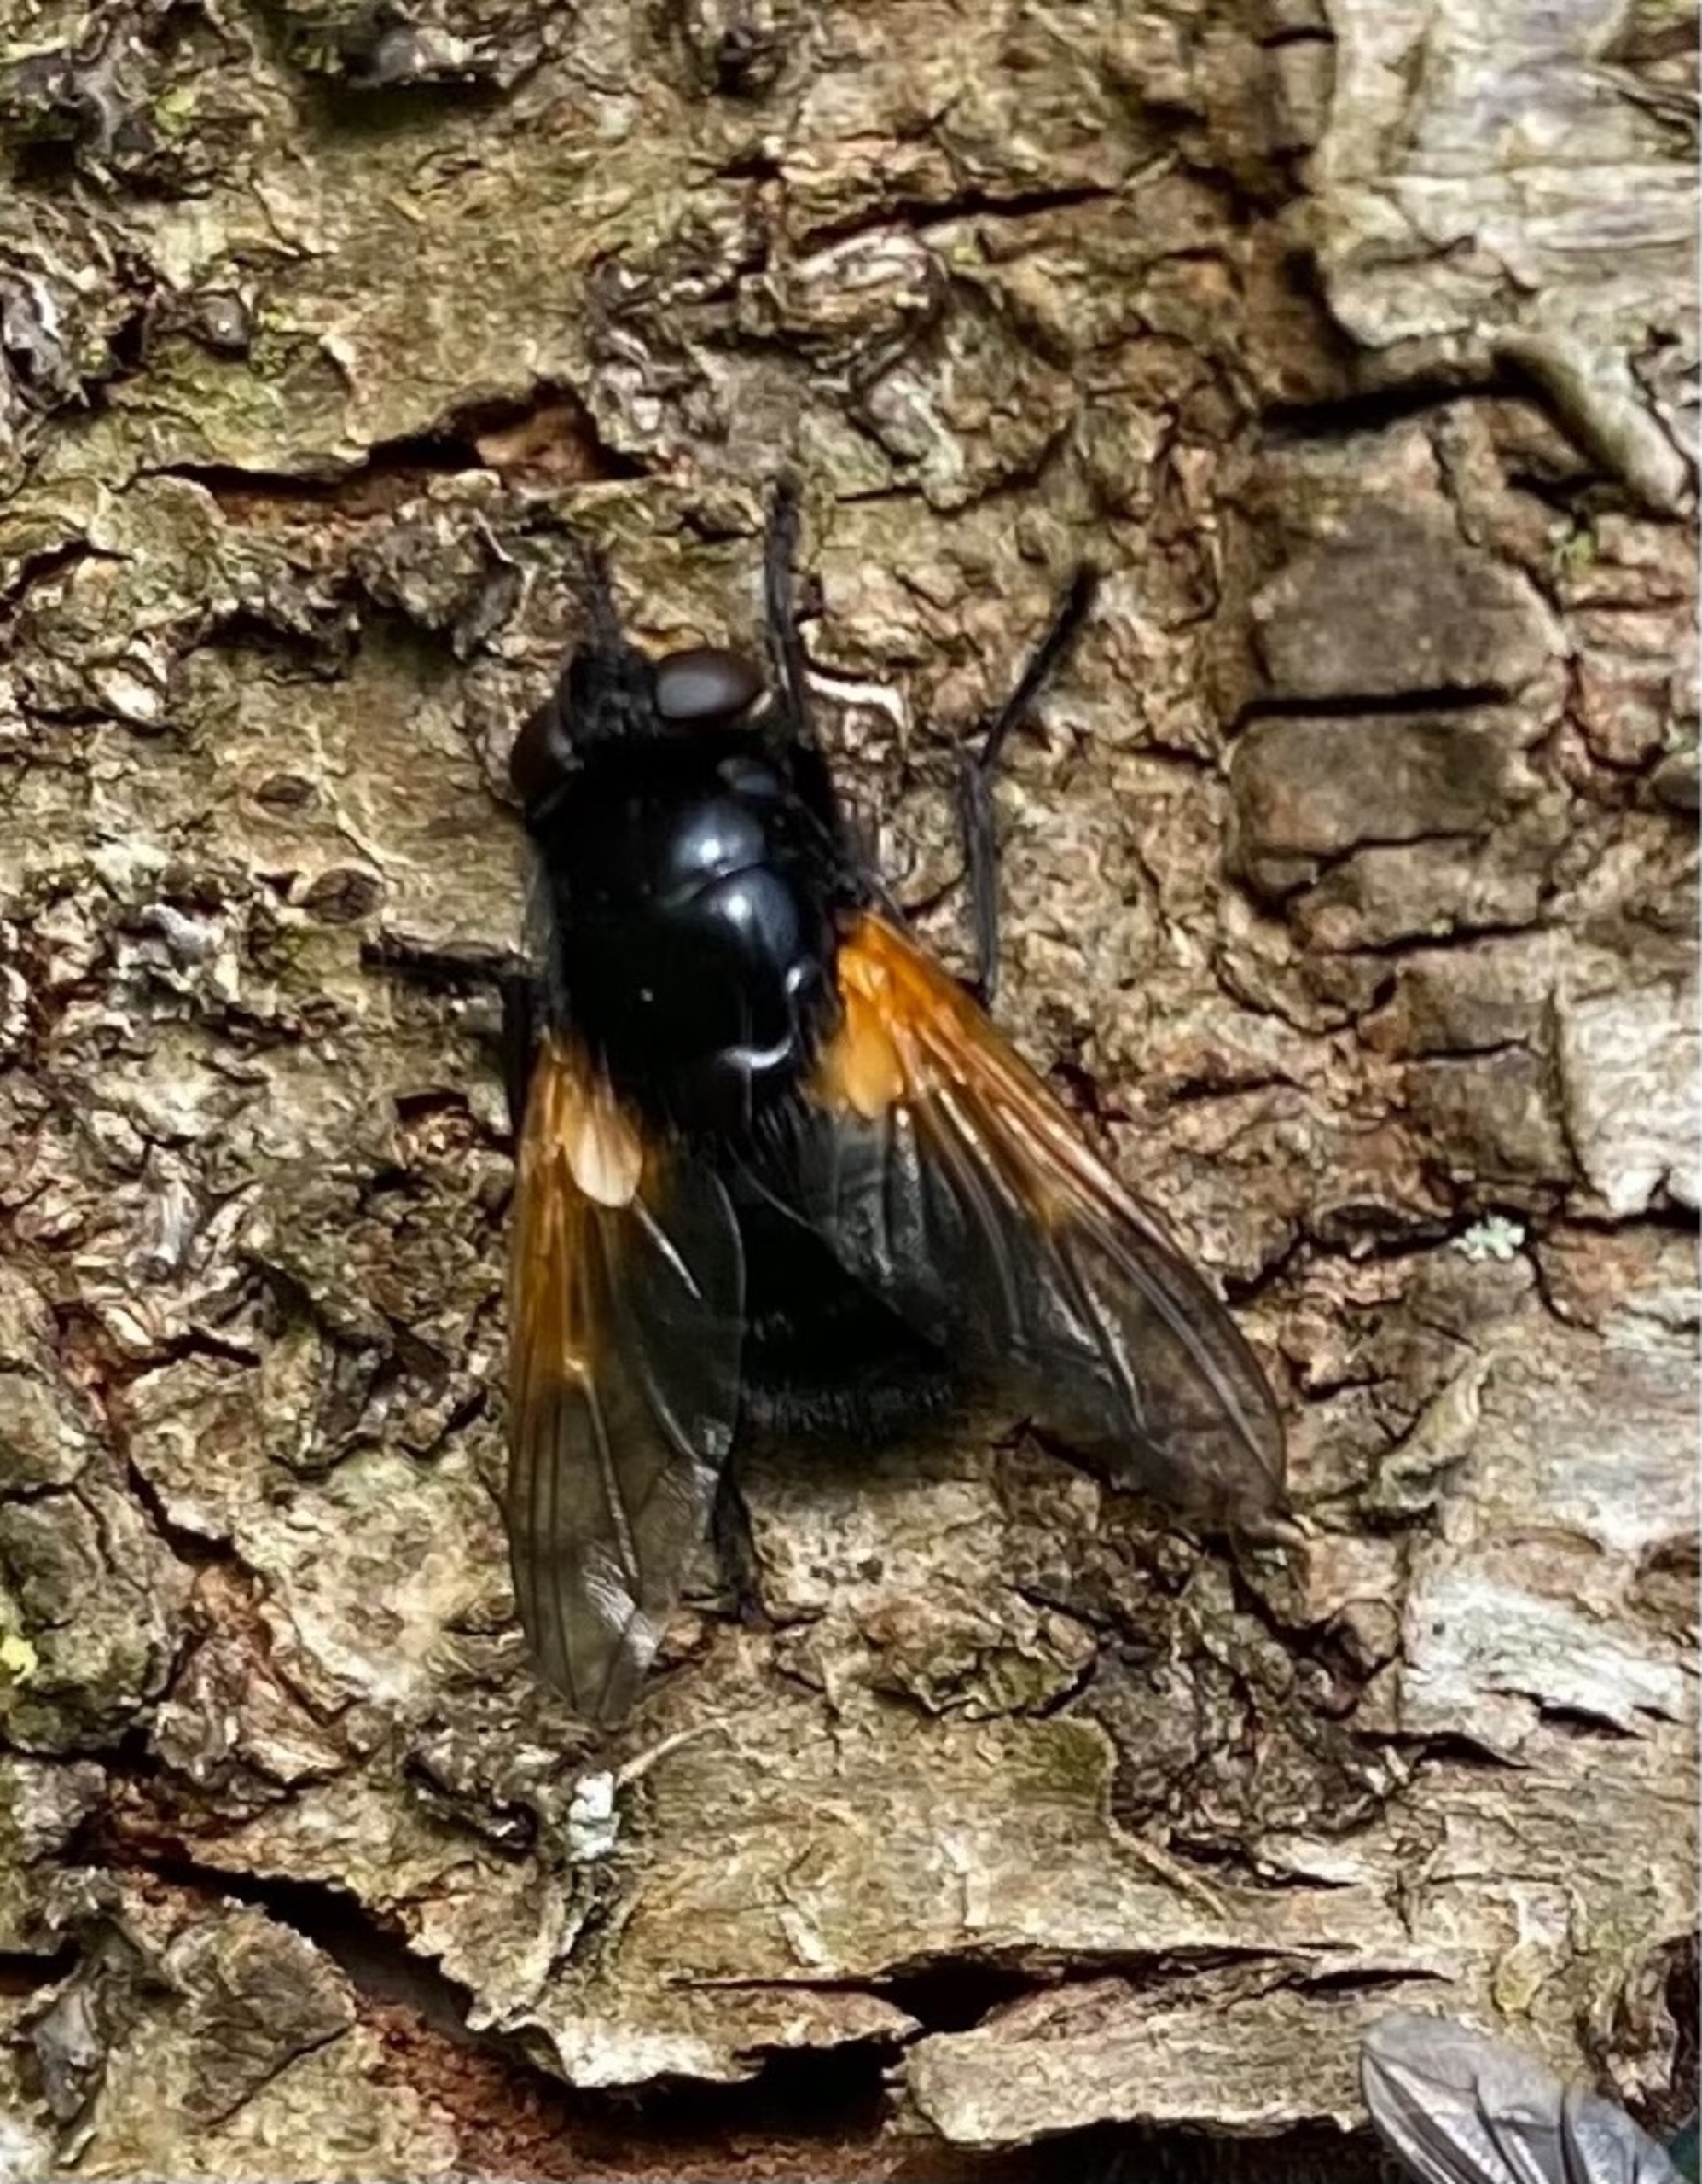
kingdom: Animalia
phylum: Arthropoda
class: Insecta
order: Diptera
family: Muscidae
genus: Mesembrina
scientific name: Mesembrina meridiana
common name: Gulvinget flue
